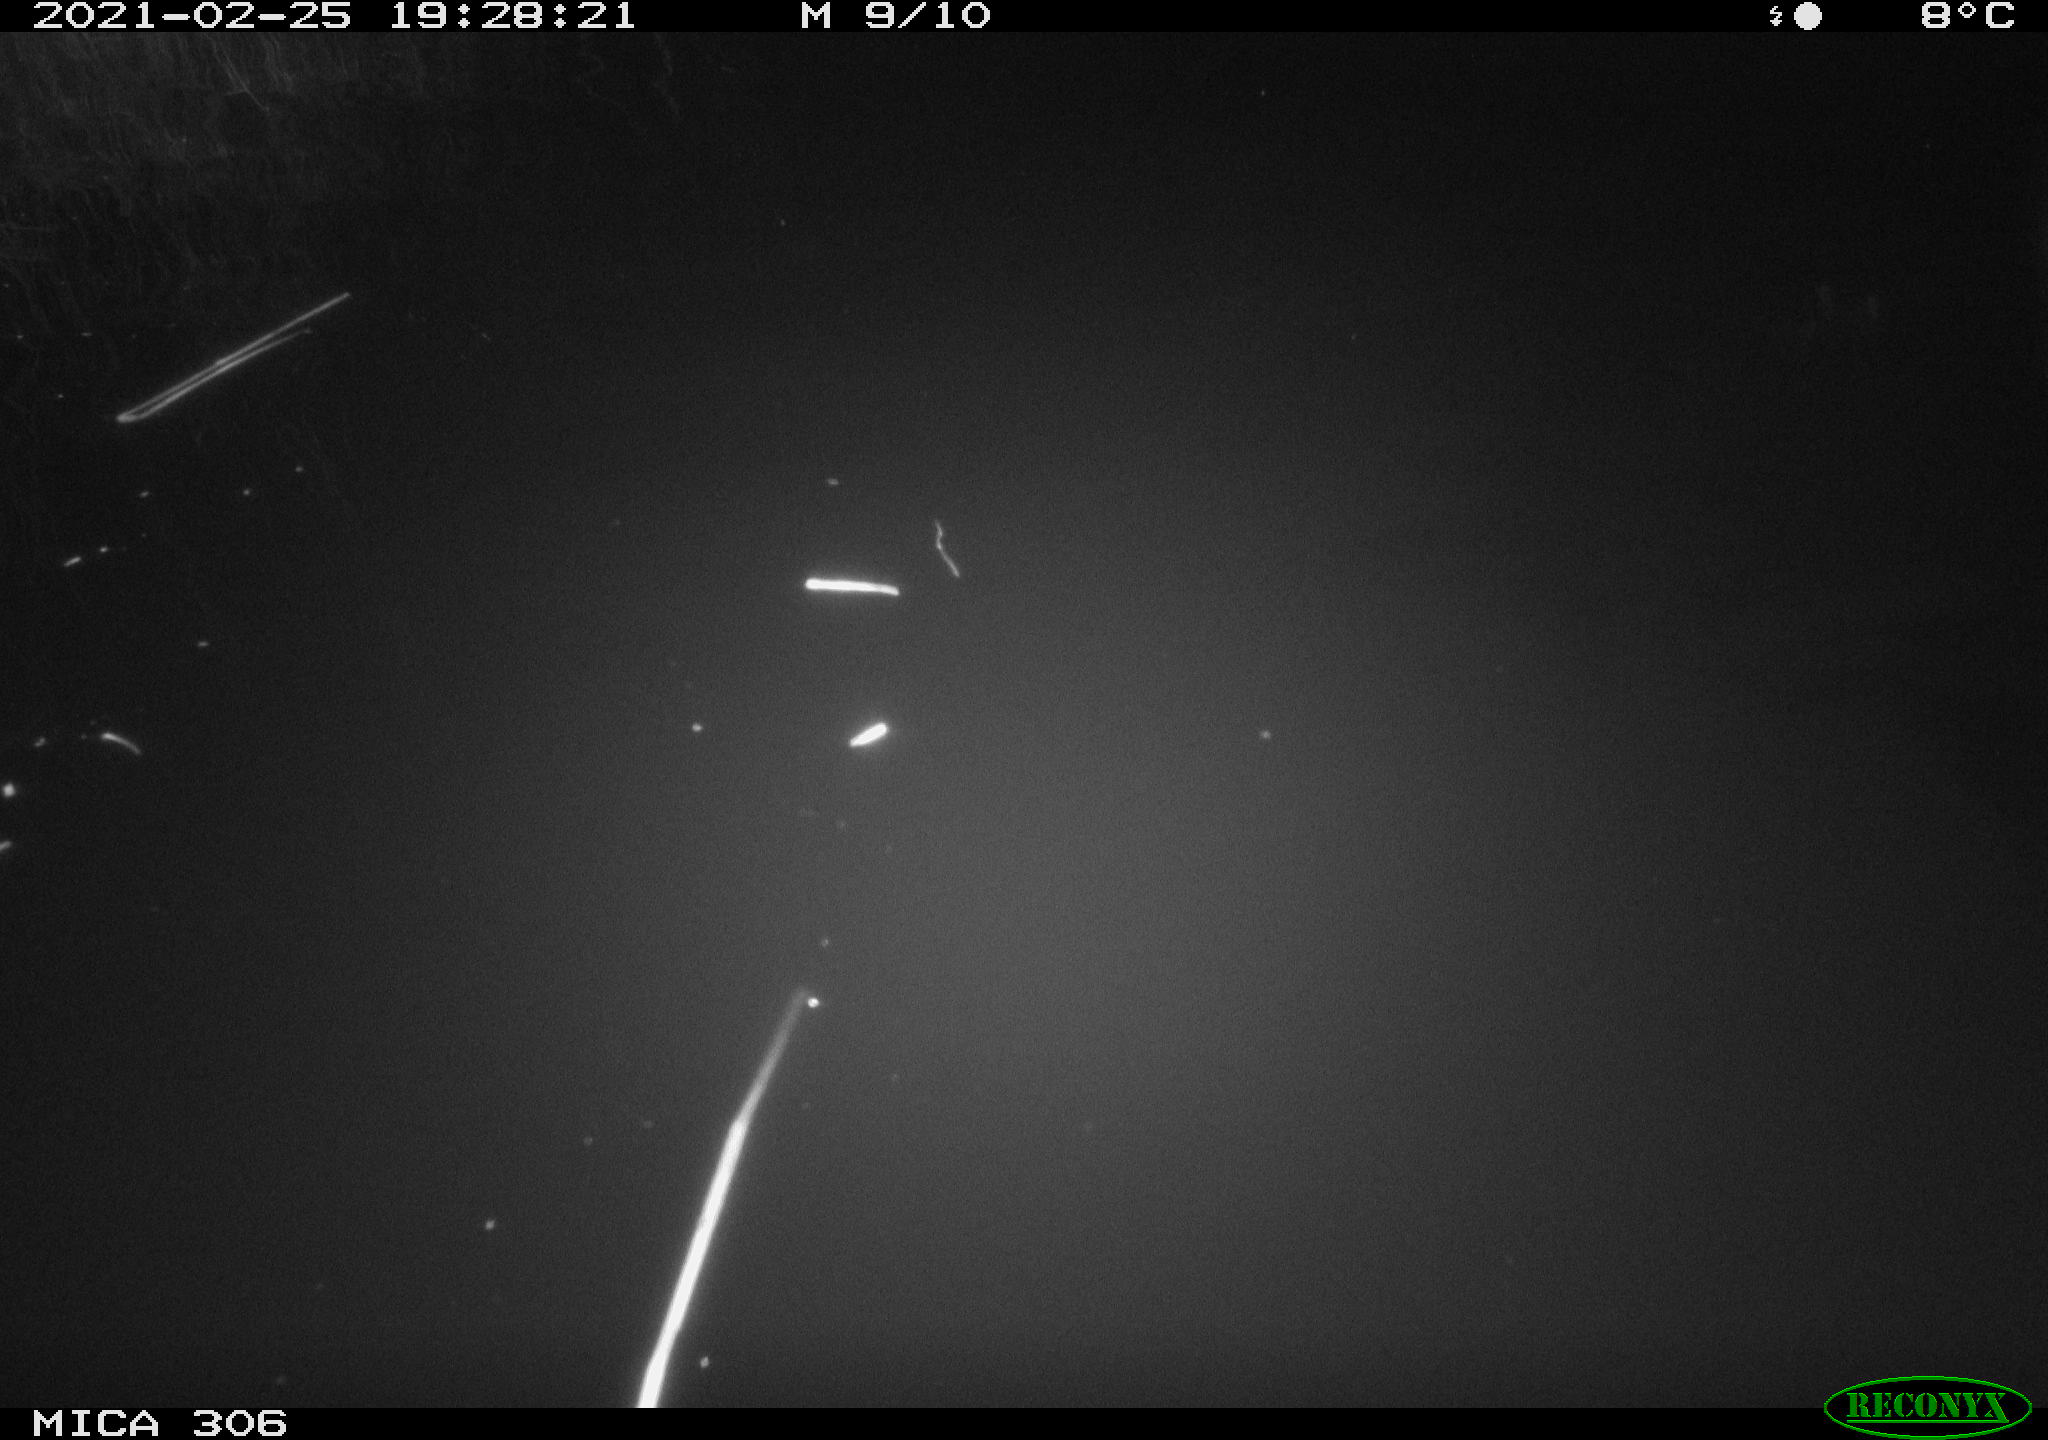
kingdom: Animalia
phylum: Chordata
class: Mammalia
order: Rodentia
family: Cricetidae
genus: Ondatra
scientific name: Ondatra zibethicus
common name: Muskrat
